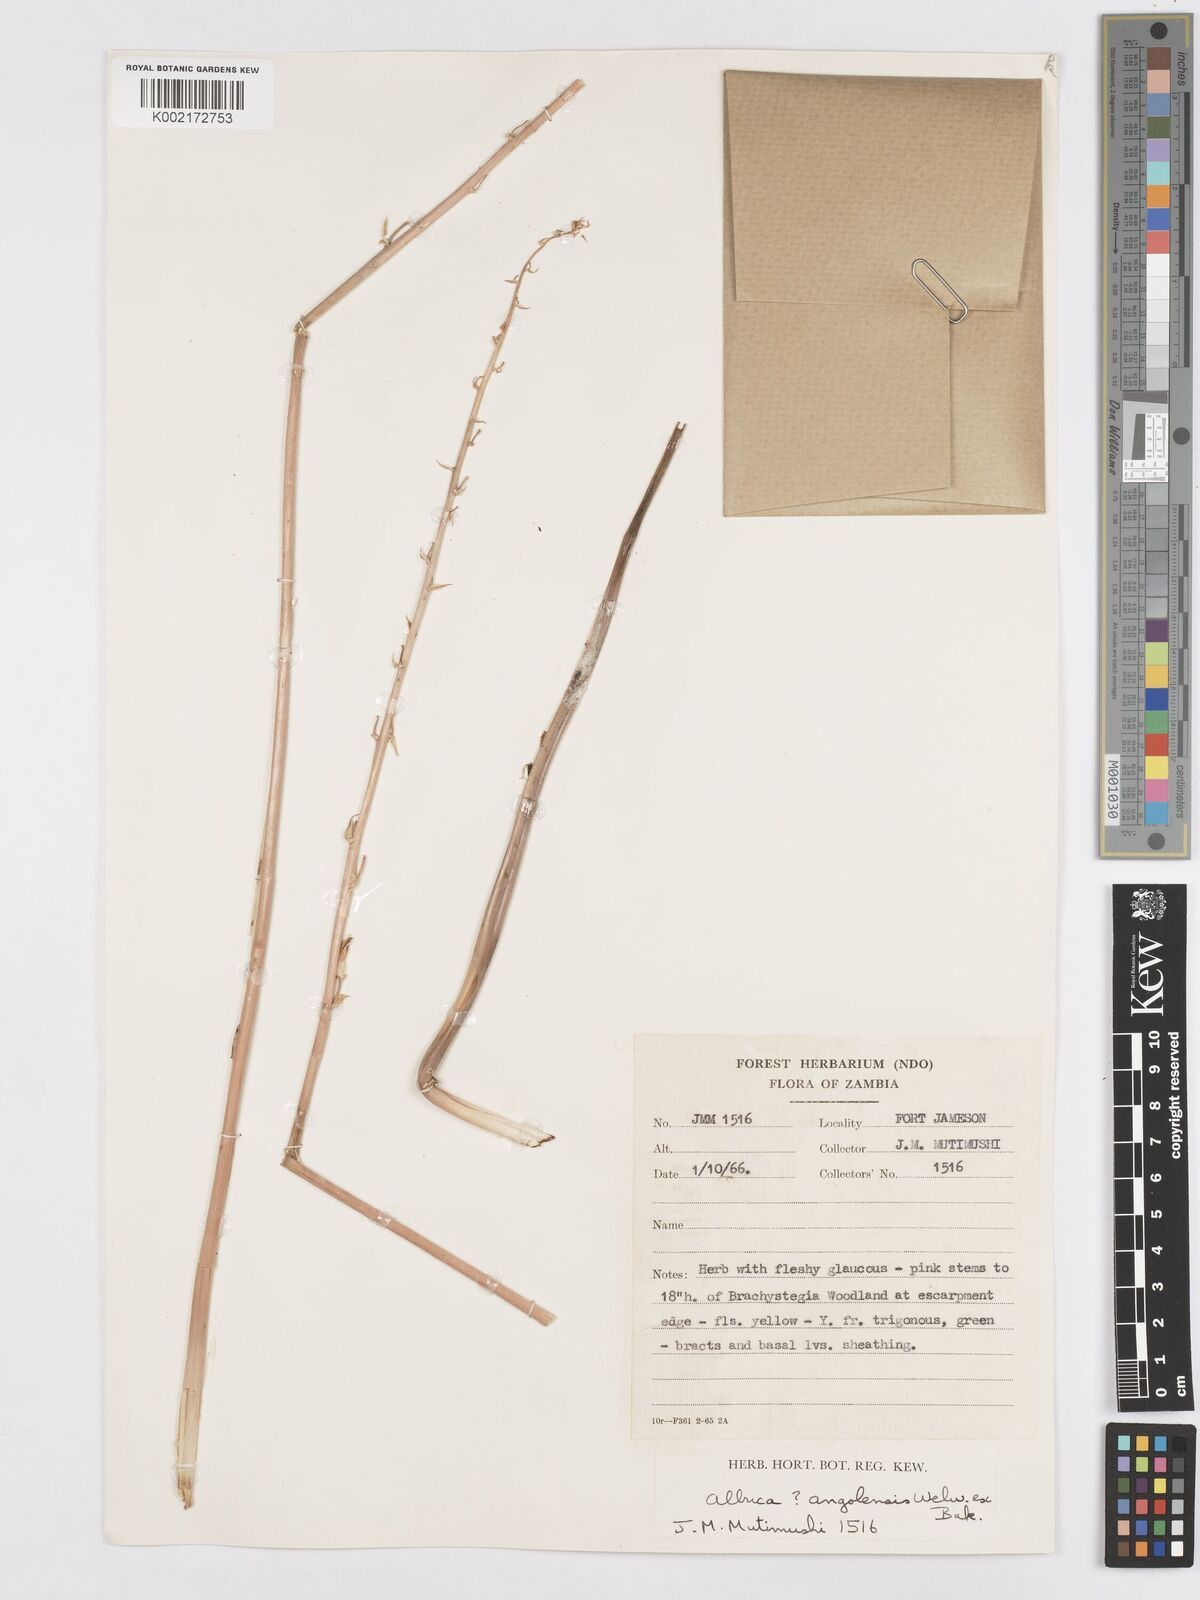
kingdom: Plantae
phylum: Tracheophyta
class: Liliopsida
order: Asparagales
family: Asparagaceae
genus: Albuca
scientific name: Albuca abyssinica
